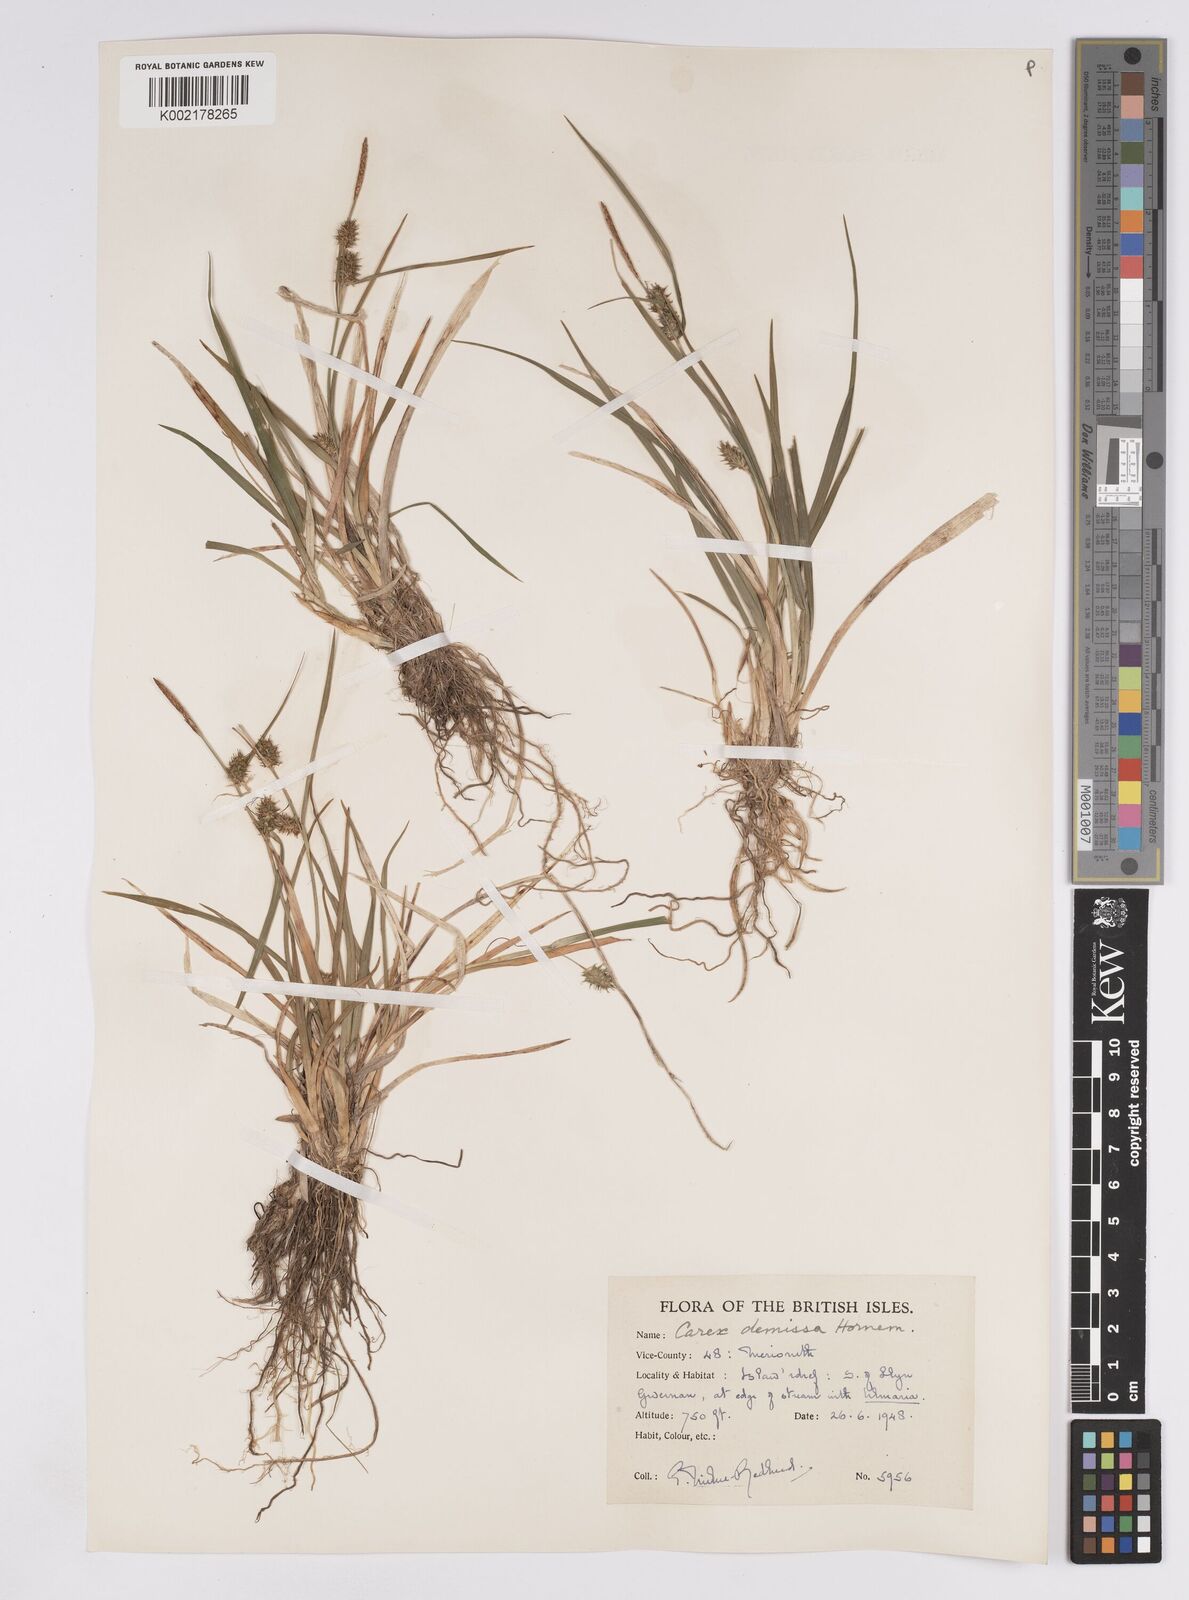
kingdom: Plantae
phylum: Tracheophyta
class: Liliopsida
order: Poales
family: Cyperaceae
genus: Carex
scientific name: Carex demissa
